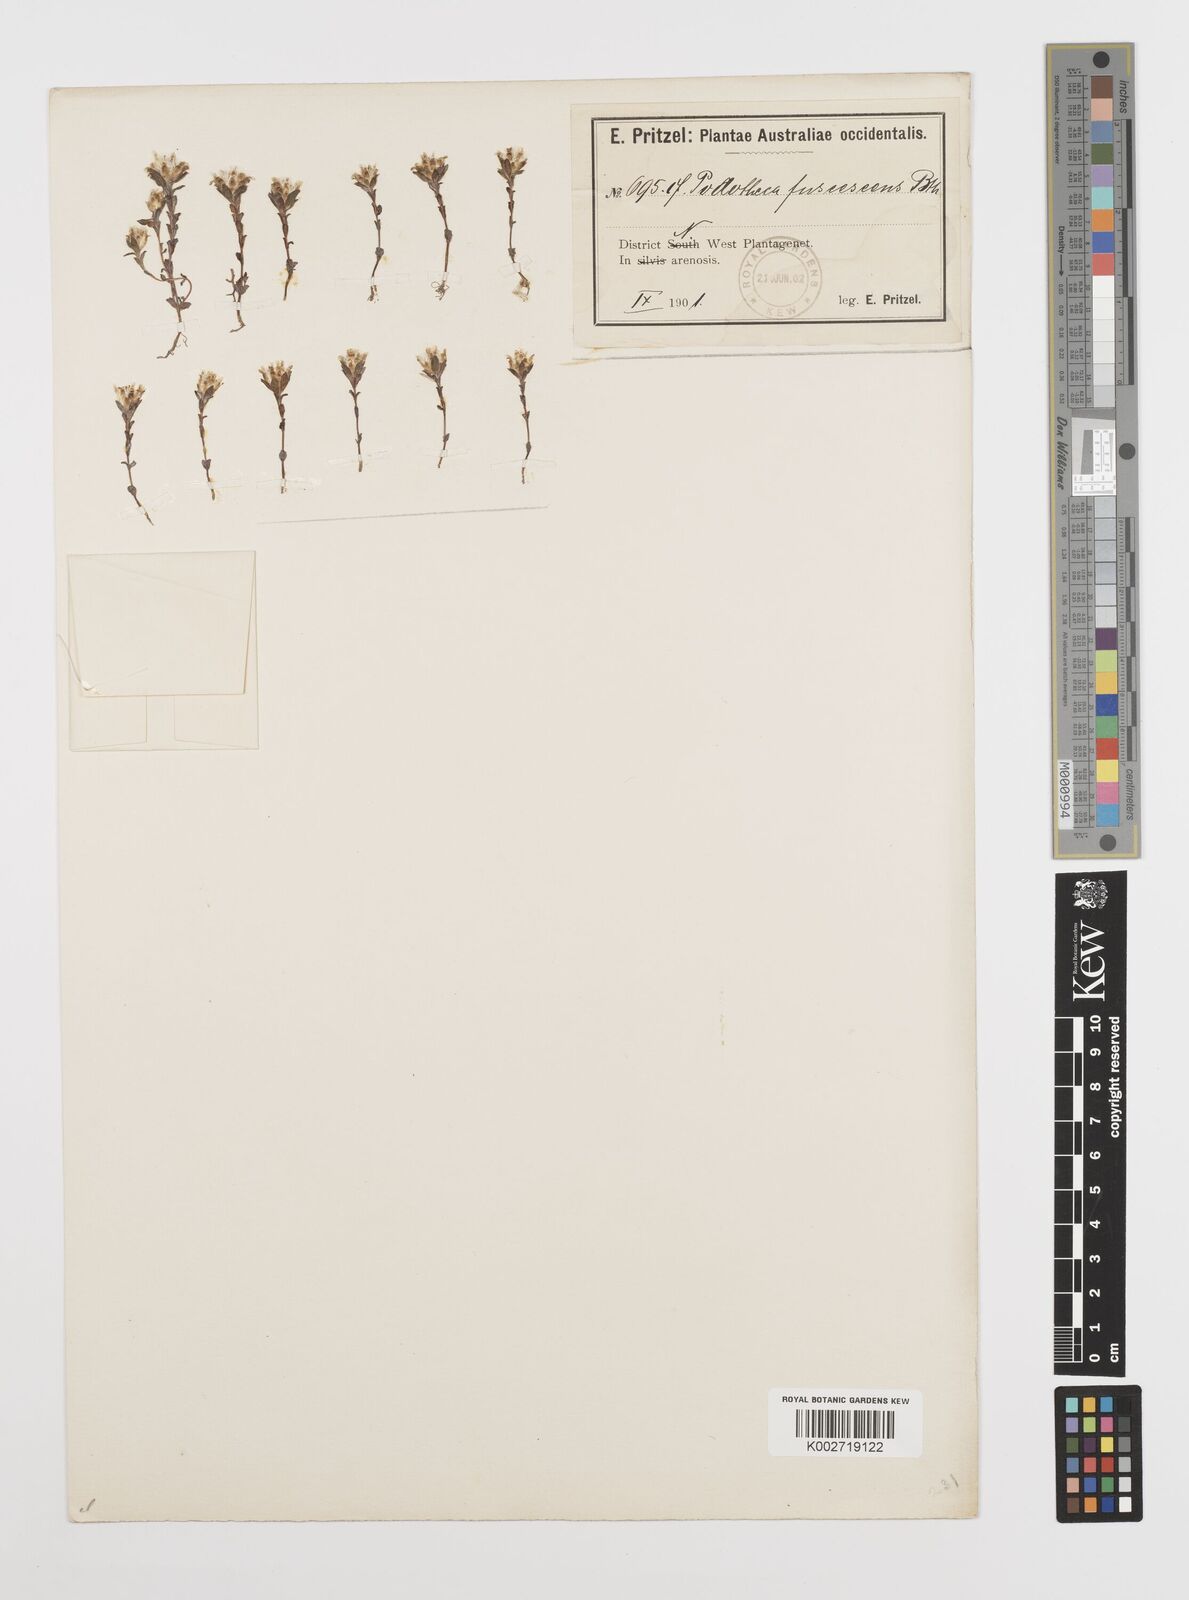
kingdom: Plantae
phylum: Tracheophyta
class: Magnoliopsida
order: Asterales
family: Asteraceae
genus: Rhodanthe
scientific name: Rhodanthe fuscescens
